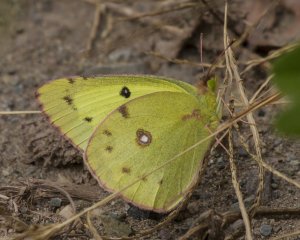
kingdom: Animalia
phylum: Arthropoda
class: Insecta
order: Lepidoptera
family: Pieridae
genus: Colias
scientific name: Colias philodice
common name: Clouded Sulphur
